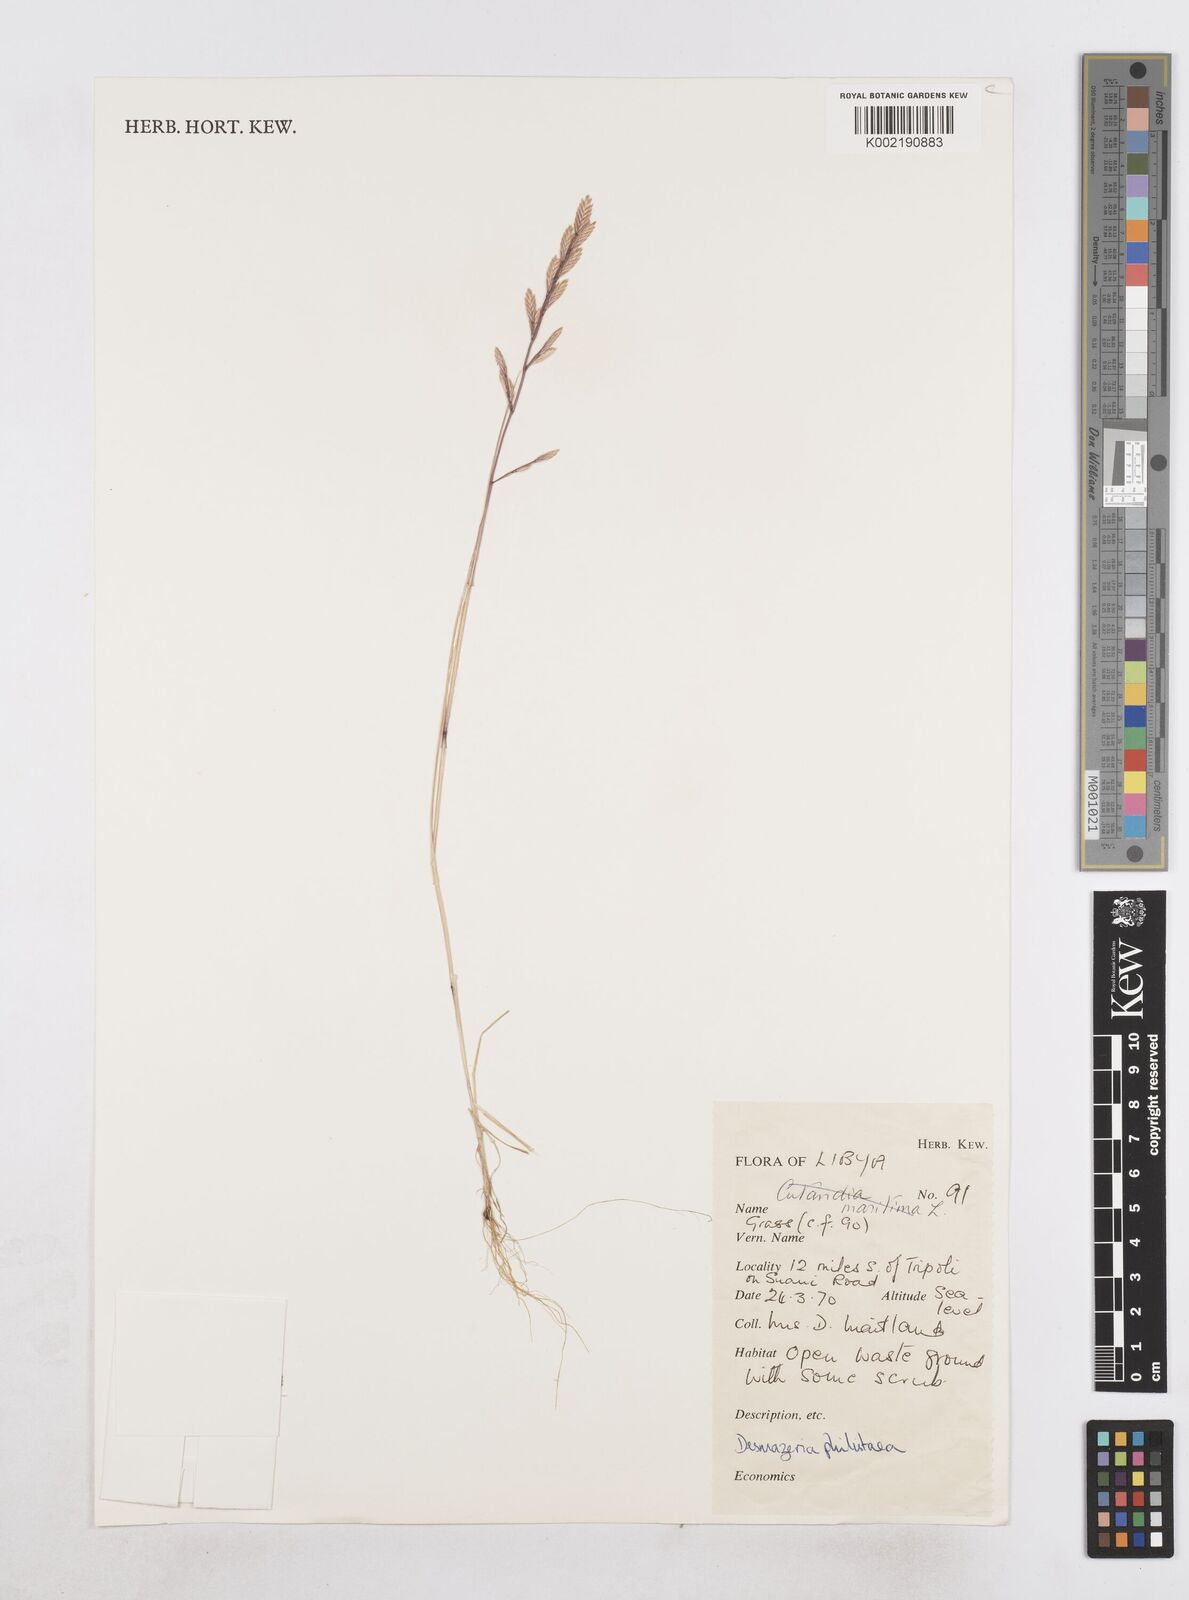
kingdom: Plantae
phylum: Tracheophyta
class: Liliopsida
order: Poales
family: Poaceae
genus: Desmazeria
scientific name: Desmazeria philistaea
